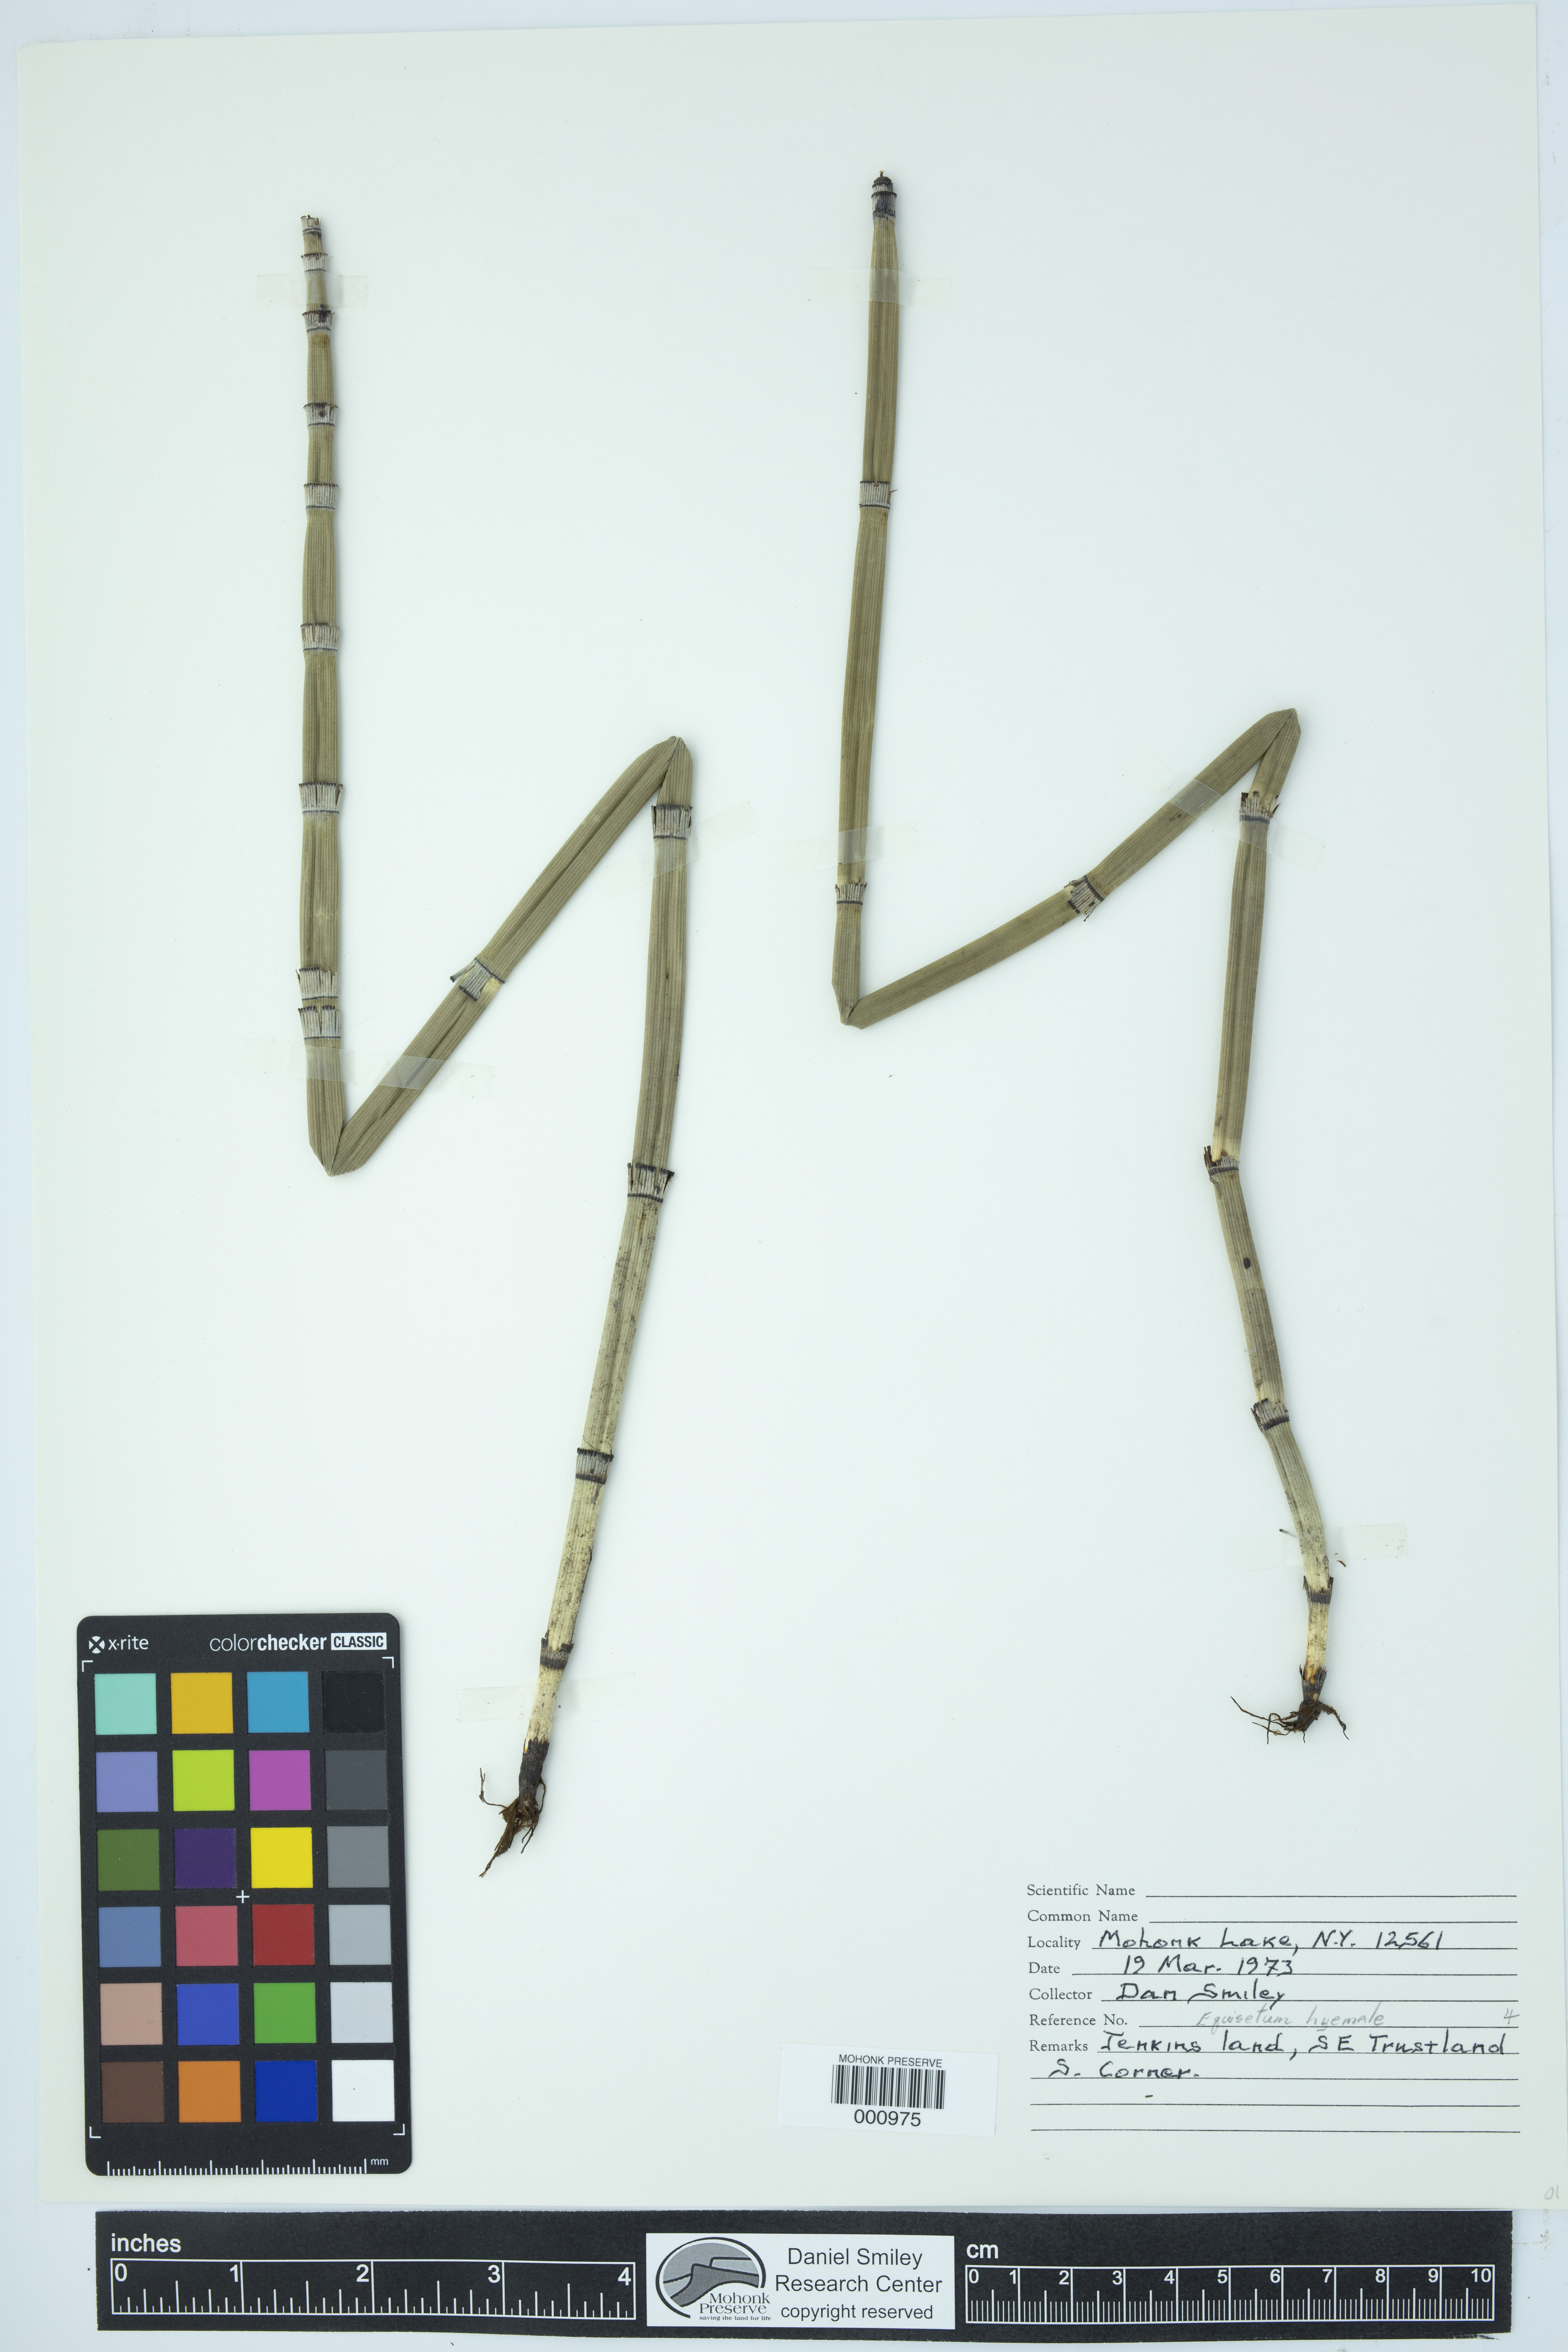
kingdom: Plantae
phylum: Tracheophyta
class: Polypodiopsida
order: Equisetales
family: Equisetaceae
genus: Equisetum
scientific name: Equisetum praealtum
